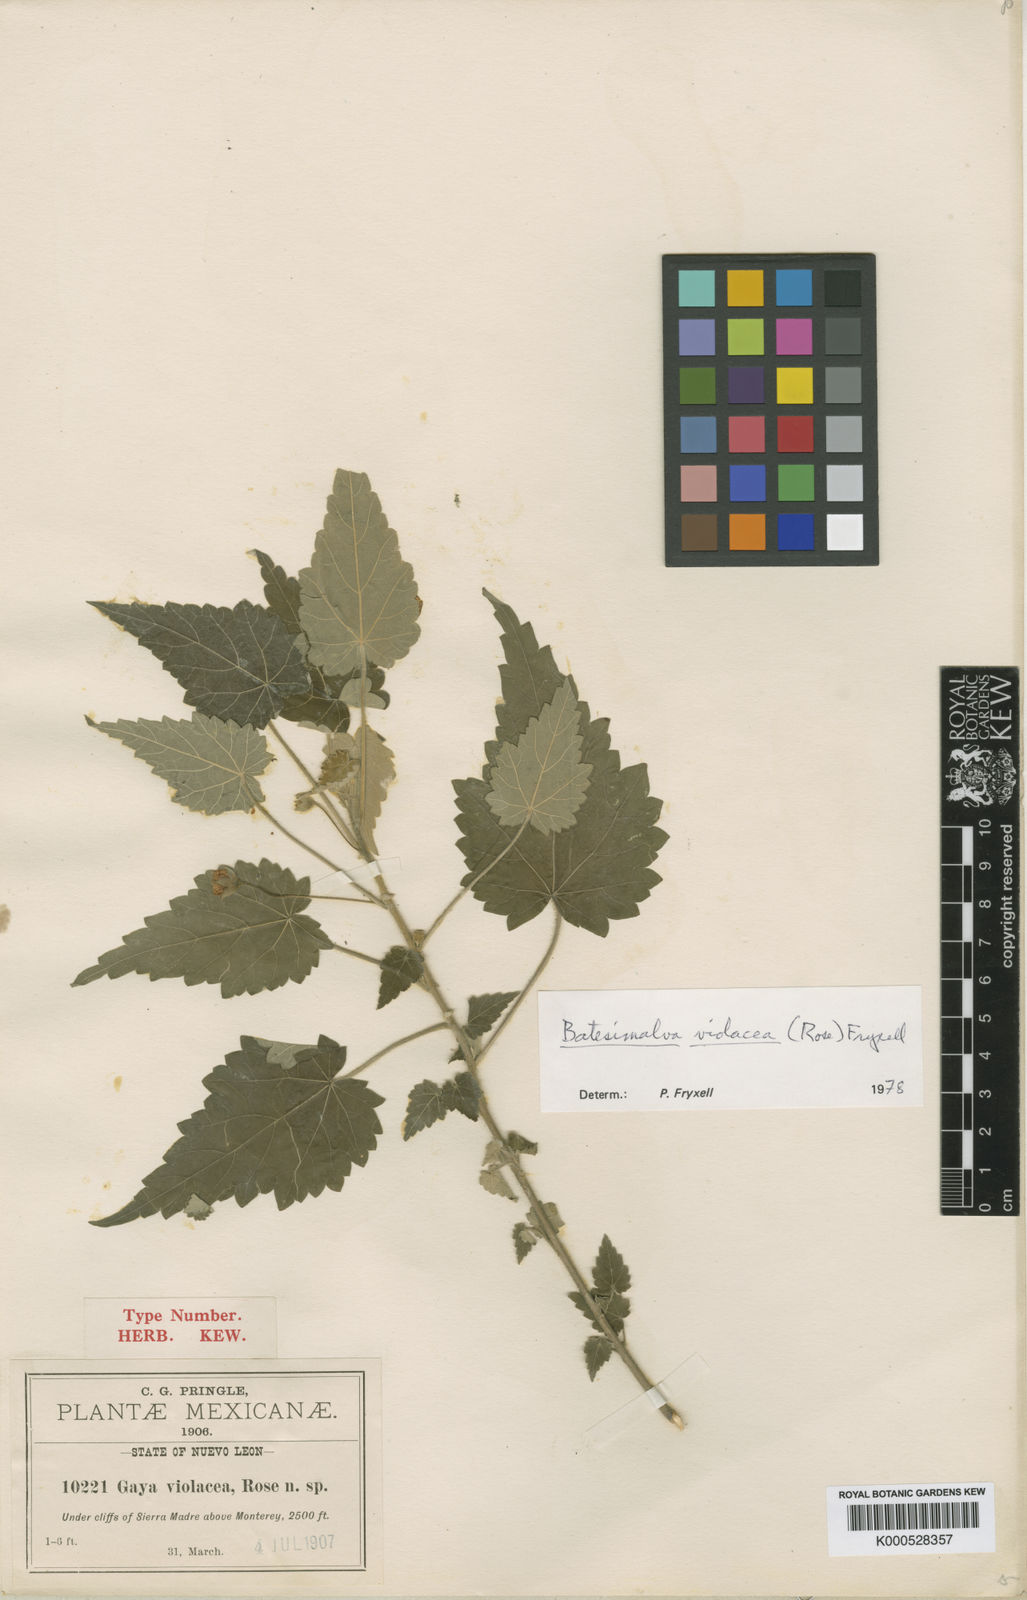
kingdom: Plantae
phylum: Tracheophyta
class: Magnoliopsida
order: Malvales
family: Malvaceae
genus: Batesimalva
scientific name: Batesimalva violacea
